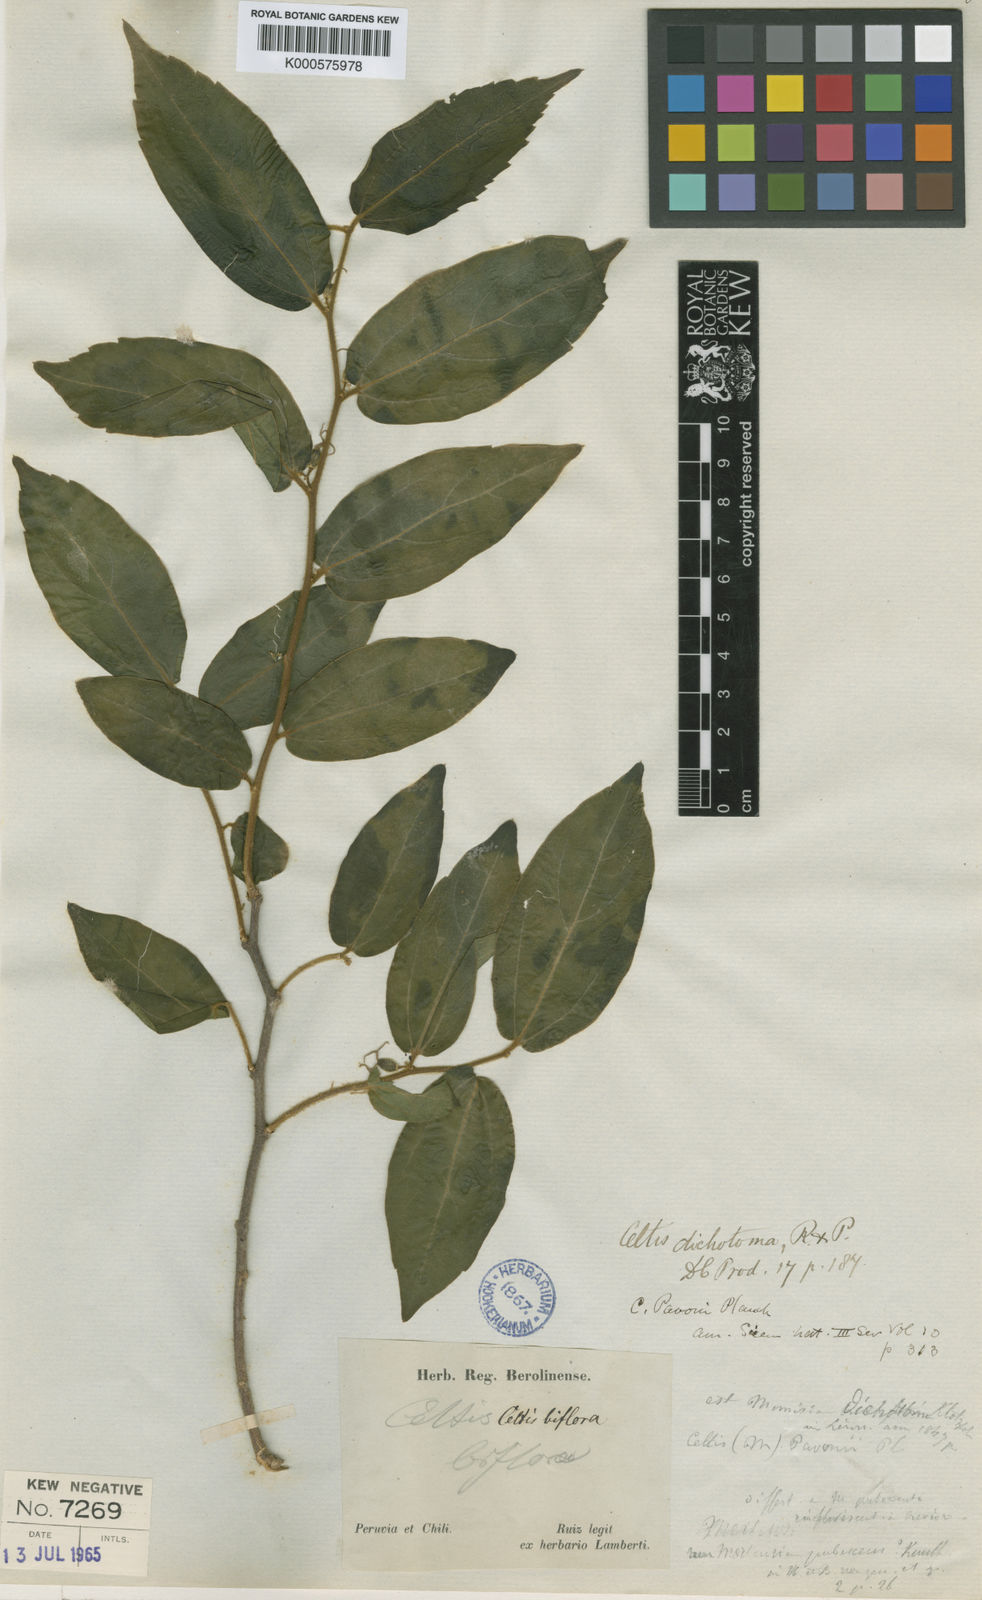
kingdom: Plantae
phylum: Tracheophyta
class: Magnoliopsida
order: Rosales
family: Cannabaceae
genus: Celtis
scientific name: Celtis iguanaea
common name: Iguana hackberry
